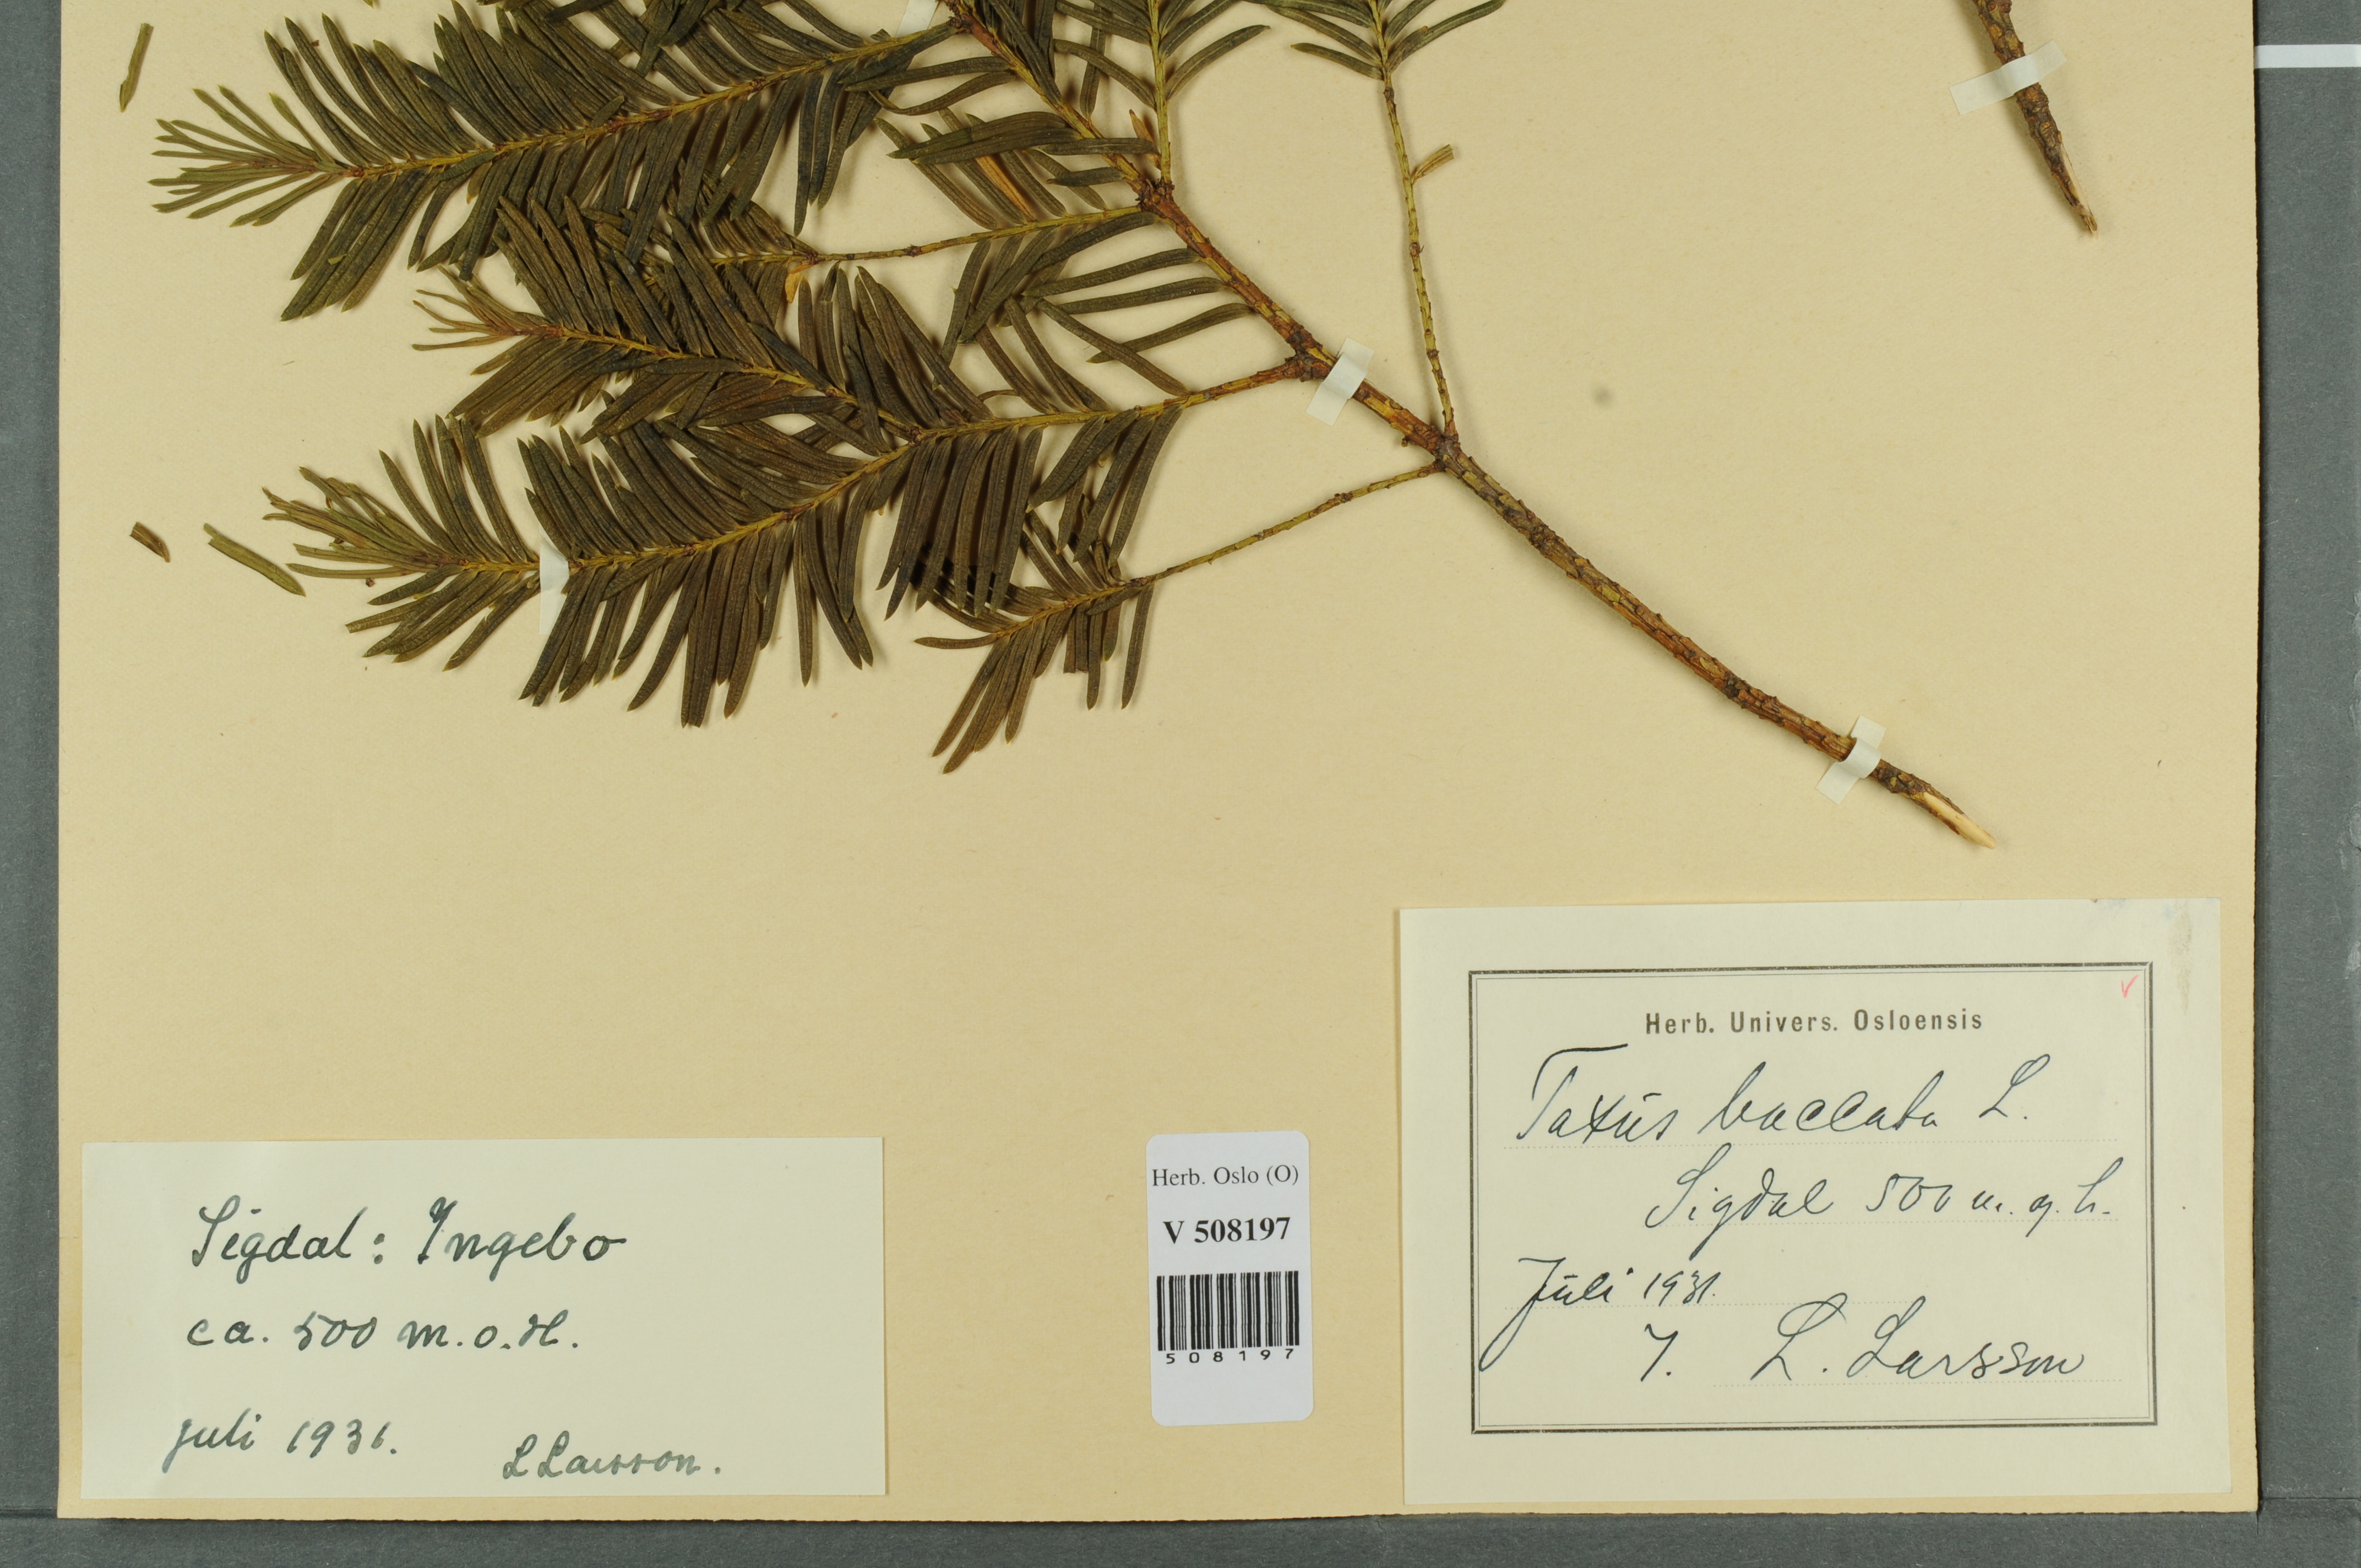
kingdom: Plantae
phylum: Tracheophyta
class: Pinopsida
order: Pinales
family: Taxaceae
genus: Taxus
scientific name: Taxus baccata
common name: Yew
